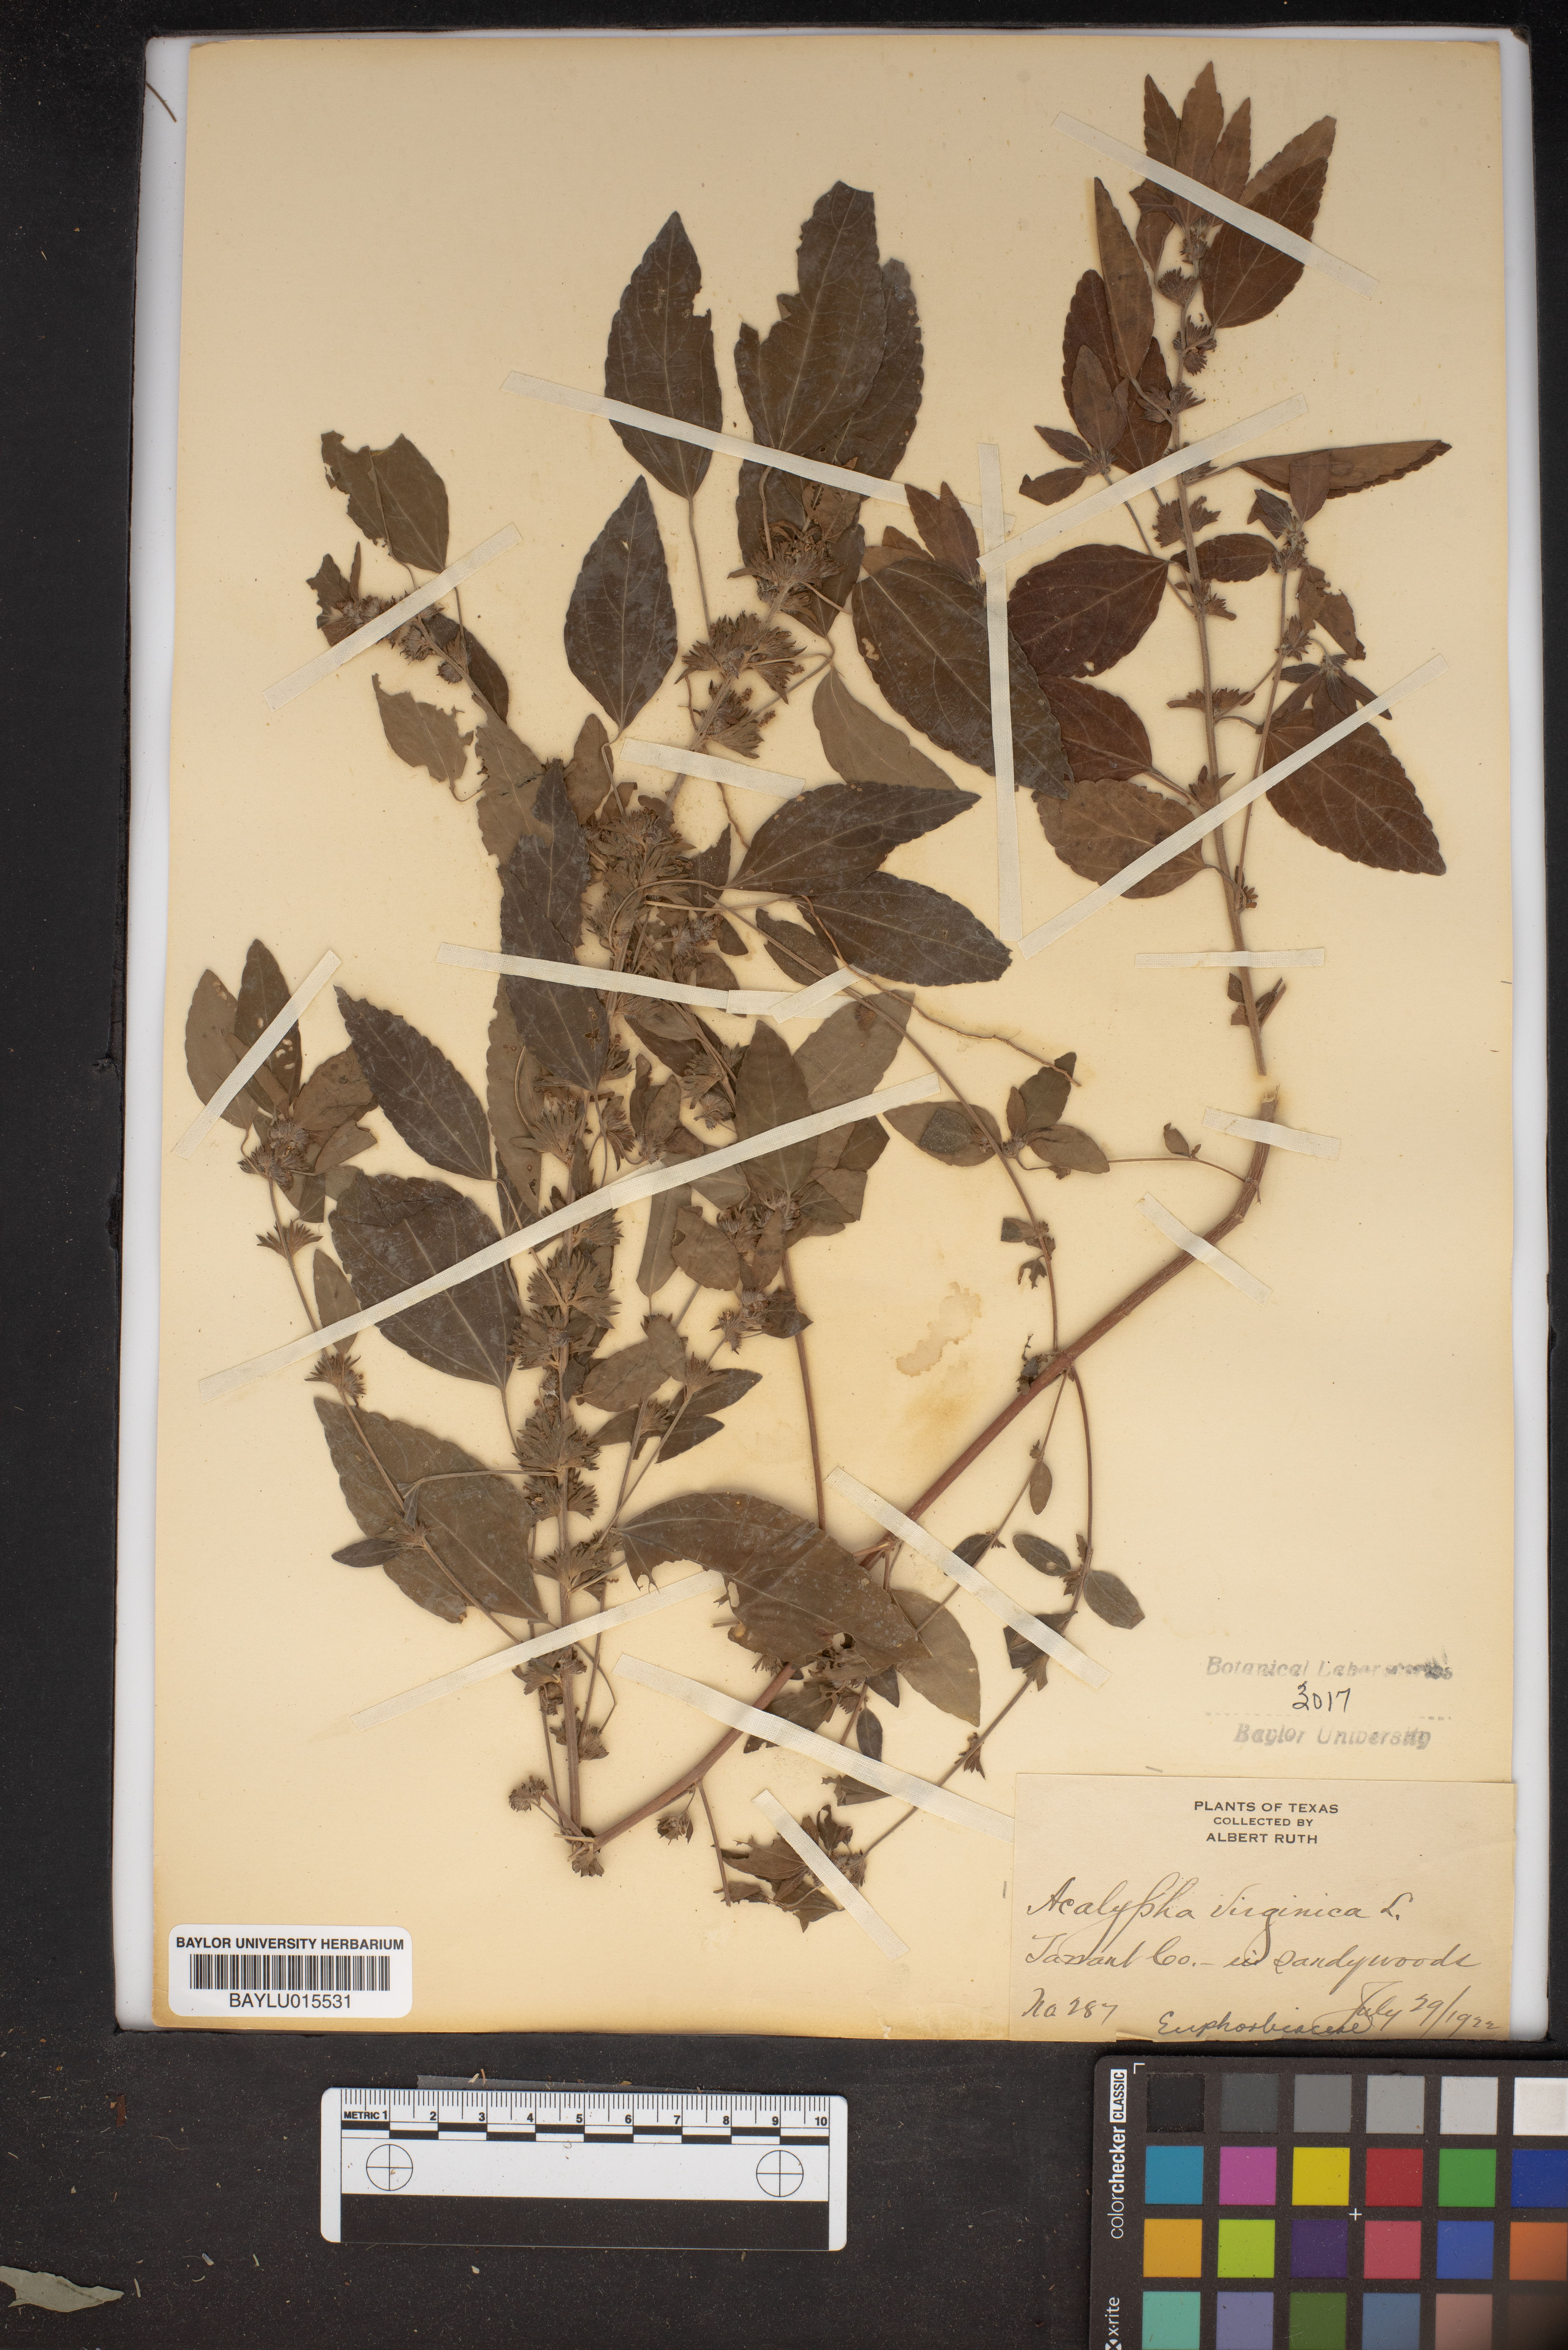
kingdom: Plantae
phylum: Tracheophyta
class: Magnoliopsida
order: Malpighiales
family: Euphorbiaceae
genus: Acalypha
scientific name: Acalypha virginica
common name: Virginia copperleaf
